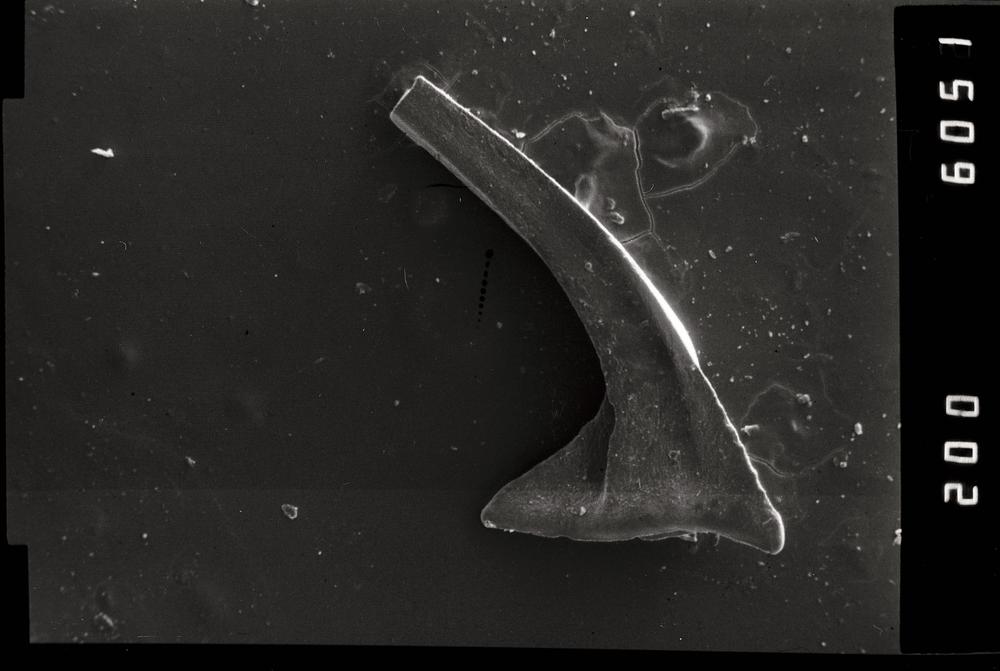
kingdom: Animalia
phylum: Chordata
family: Acodontidae
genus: Tripodus
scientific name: Tripodus
